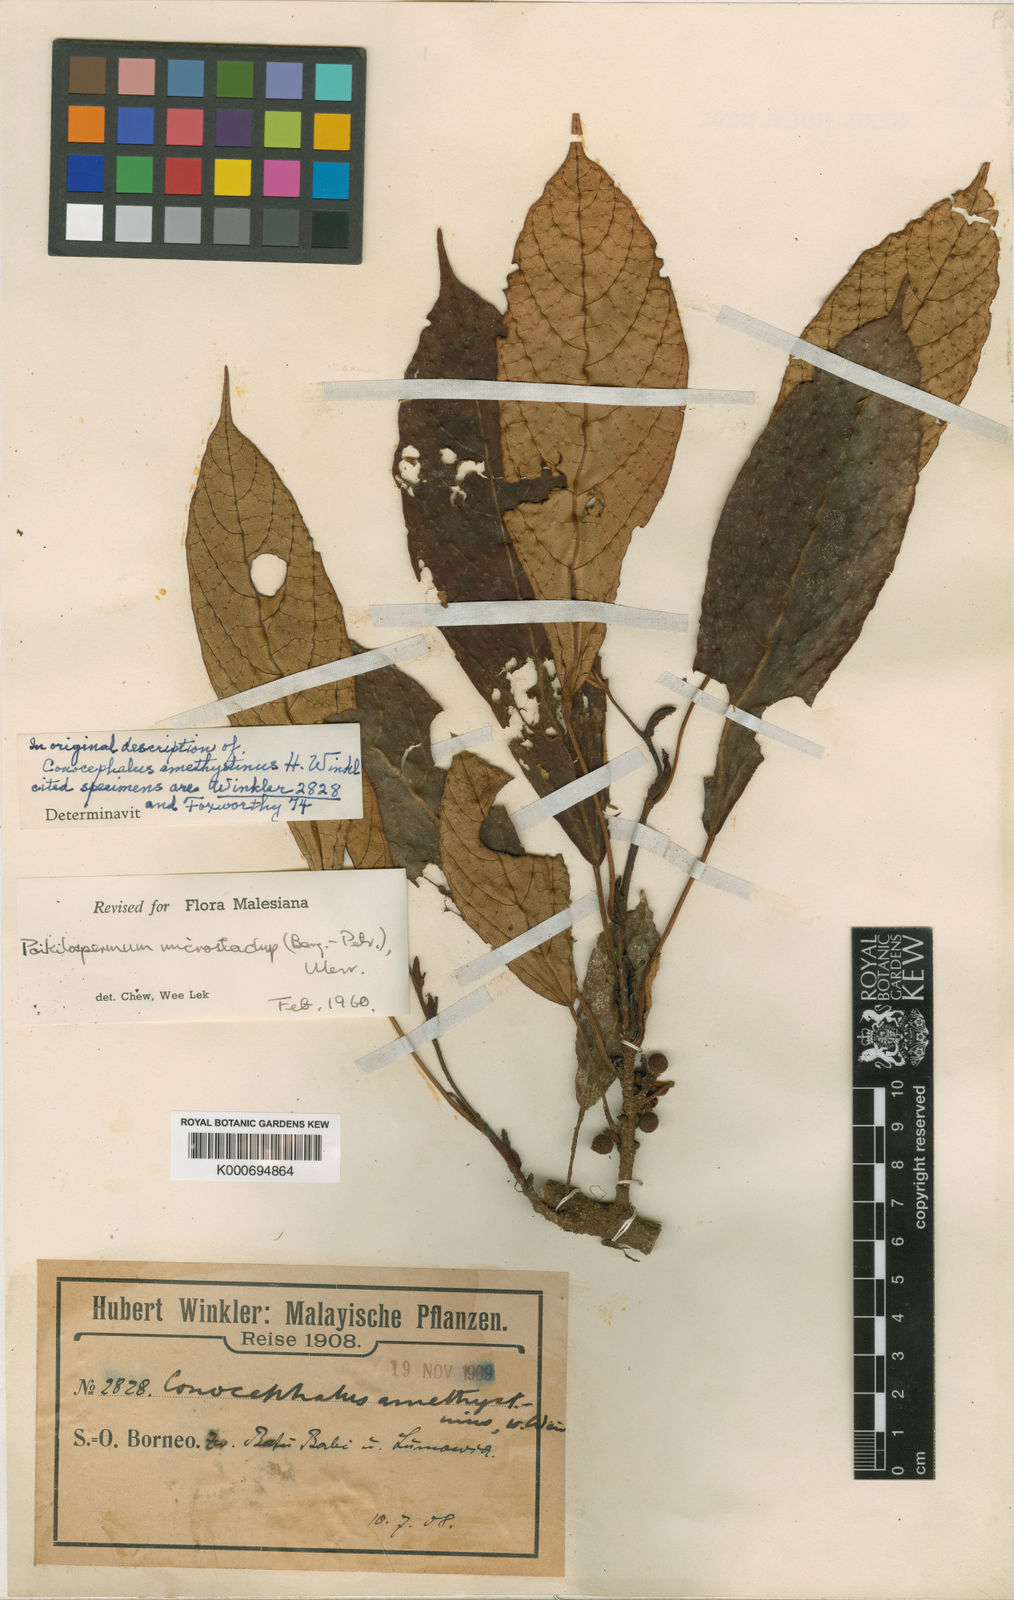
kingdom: Plantae
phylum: Tracheophyta
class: Magnoliopsida
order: Rosales
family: Urticaceae
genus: Poikilospermum
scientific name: Poikilospermum microstachys
